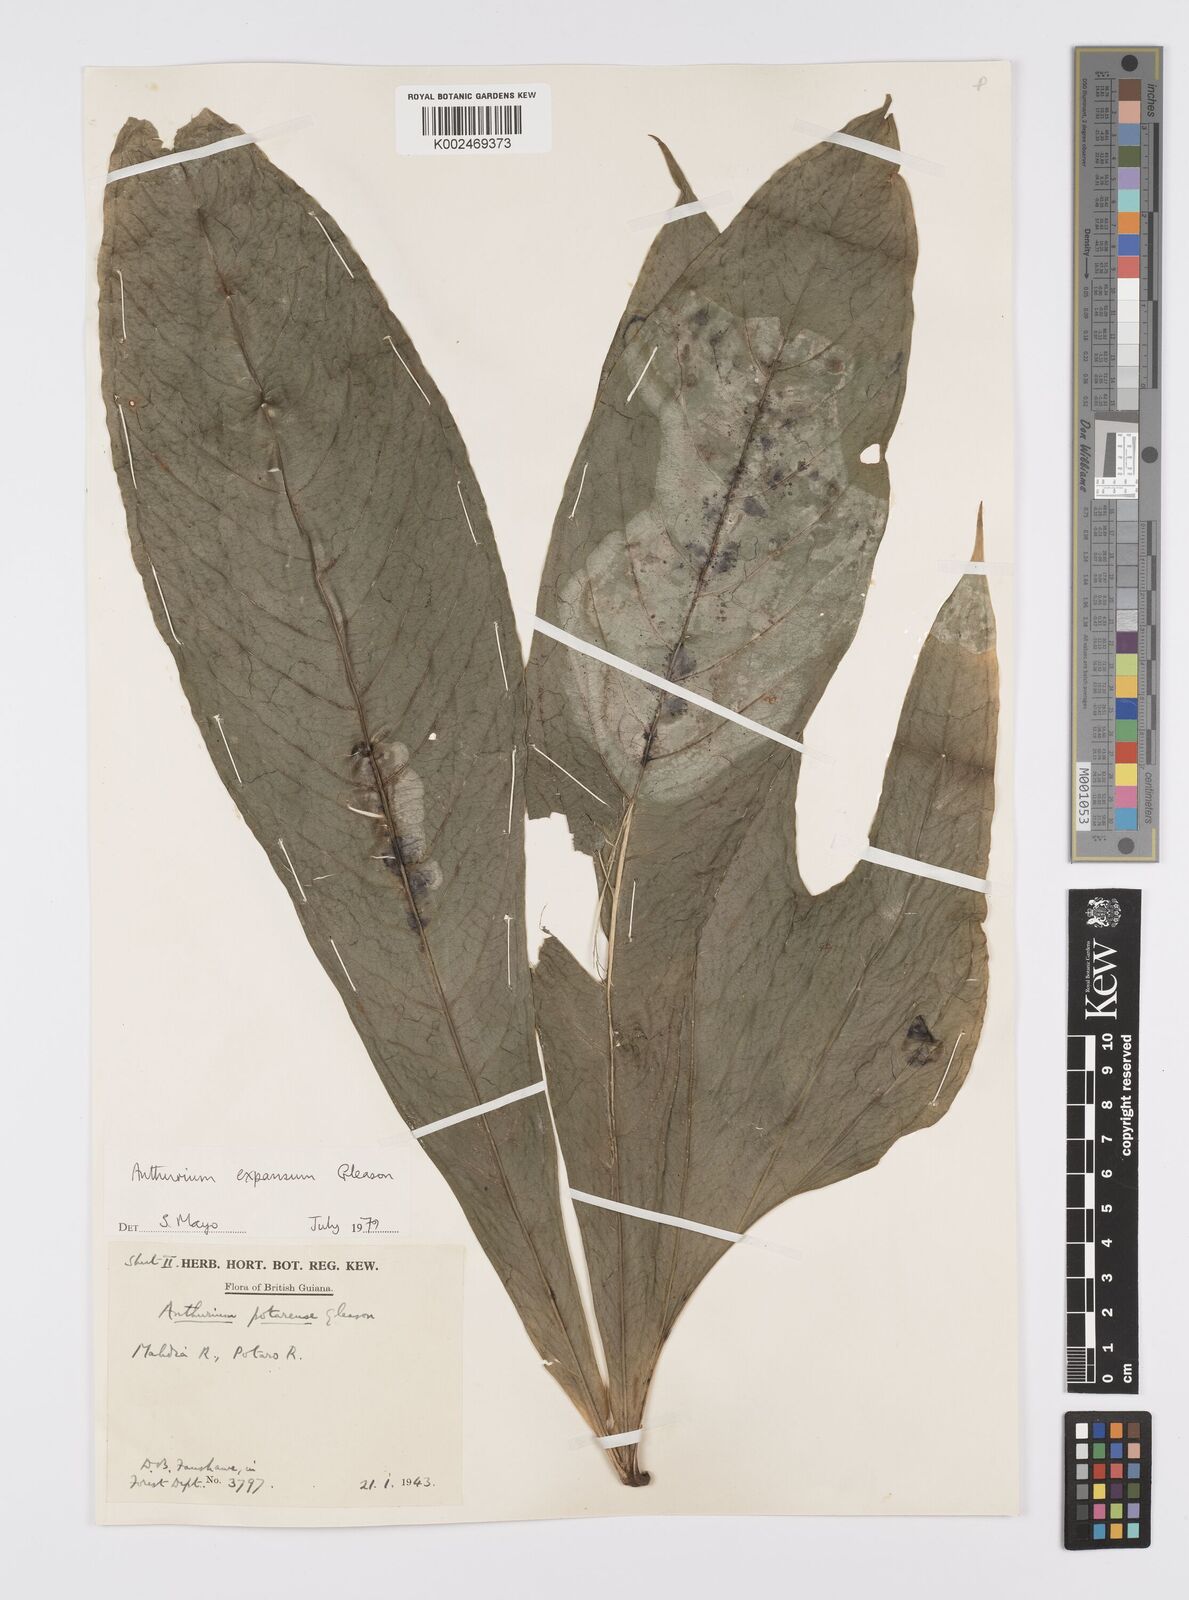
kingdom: Plantae
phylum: Tracheophyta
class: Liliopsida
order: Alismatales
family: Araceae
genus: Anthurium
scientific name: Anthurium expansum
